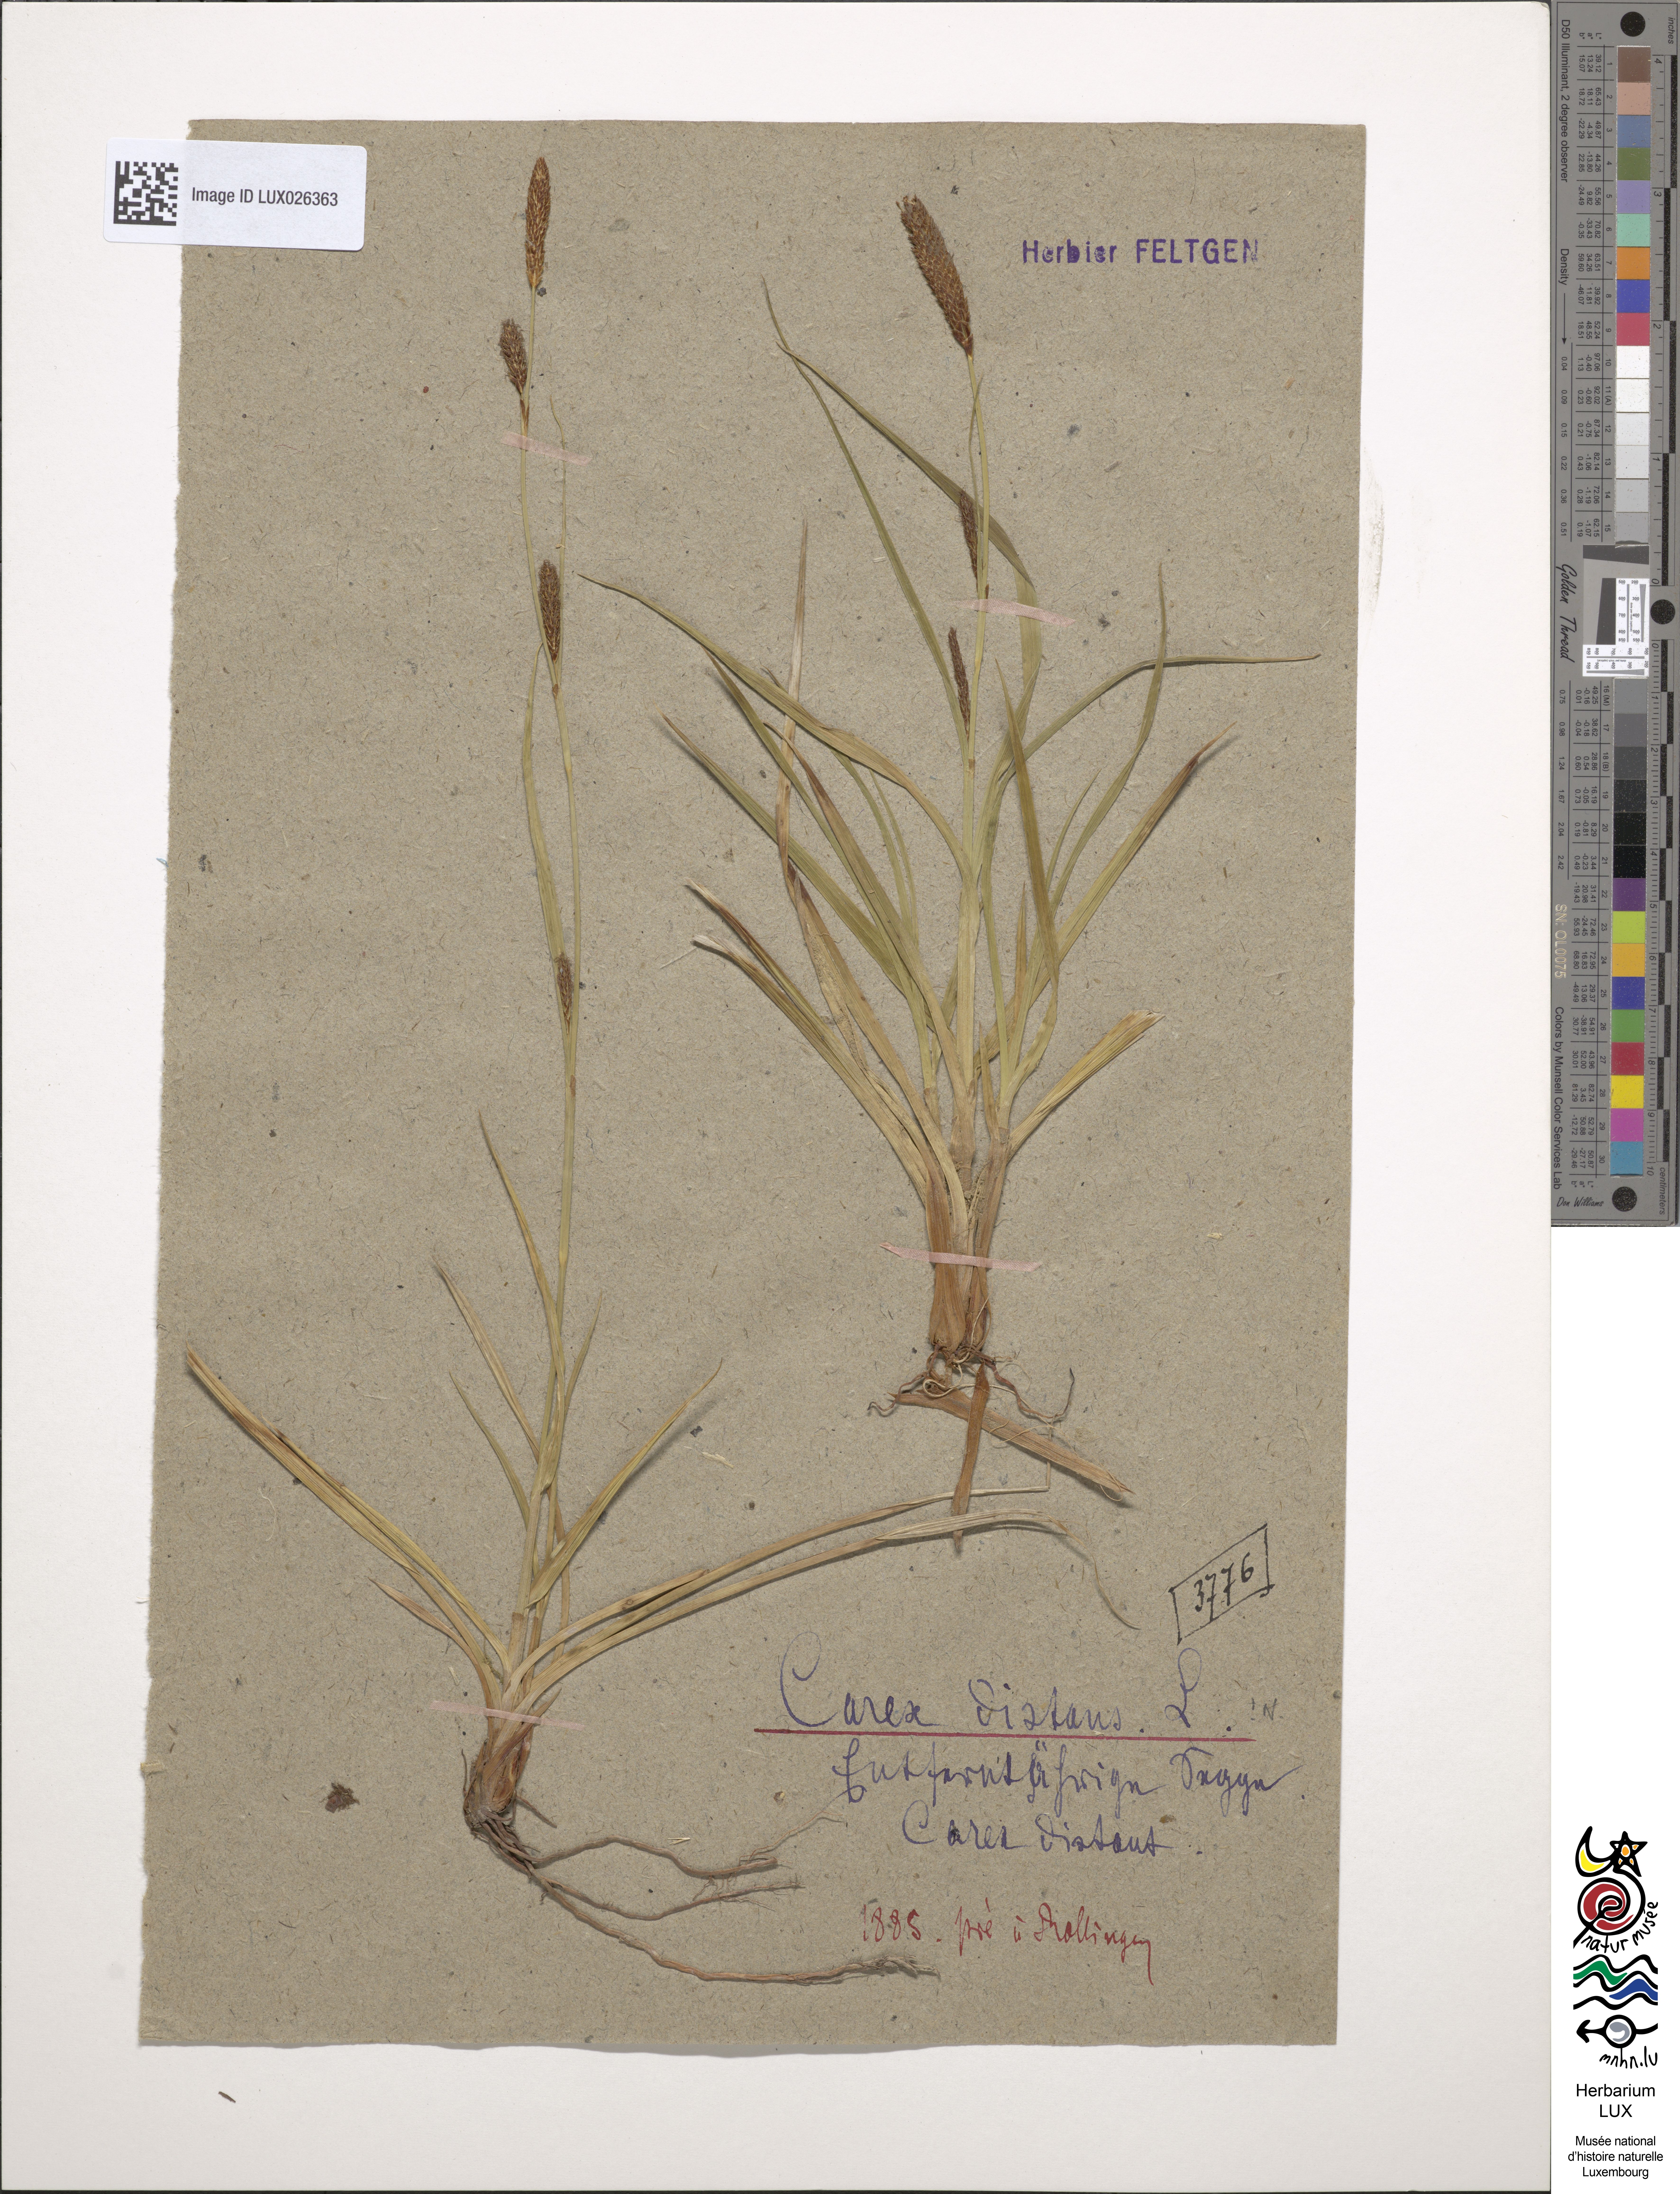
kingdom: Plantae
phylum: Tracheophyta
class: Liliopsida
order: Poales
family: Cyperaceae
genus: Carex
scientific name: Carex distans
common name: Distant sedge
